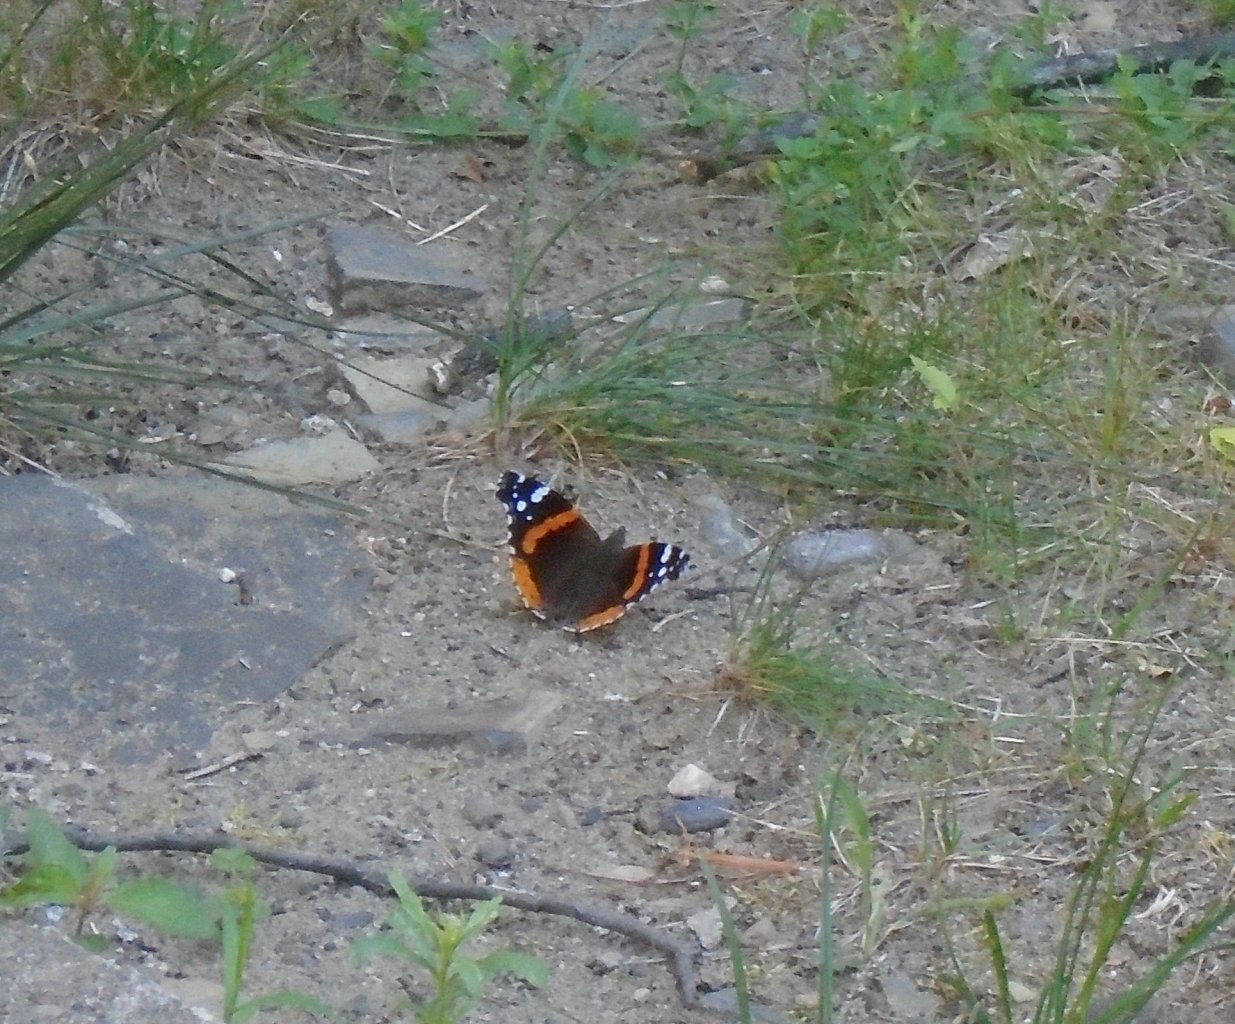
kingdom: Animalia
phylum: Arthropoda
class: Insecta
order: Lepidoptera
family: Nymphalidae
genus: Vanessa
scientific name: Vanessa atalanta
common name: Red Admiral
